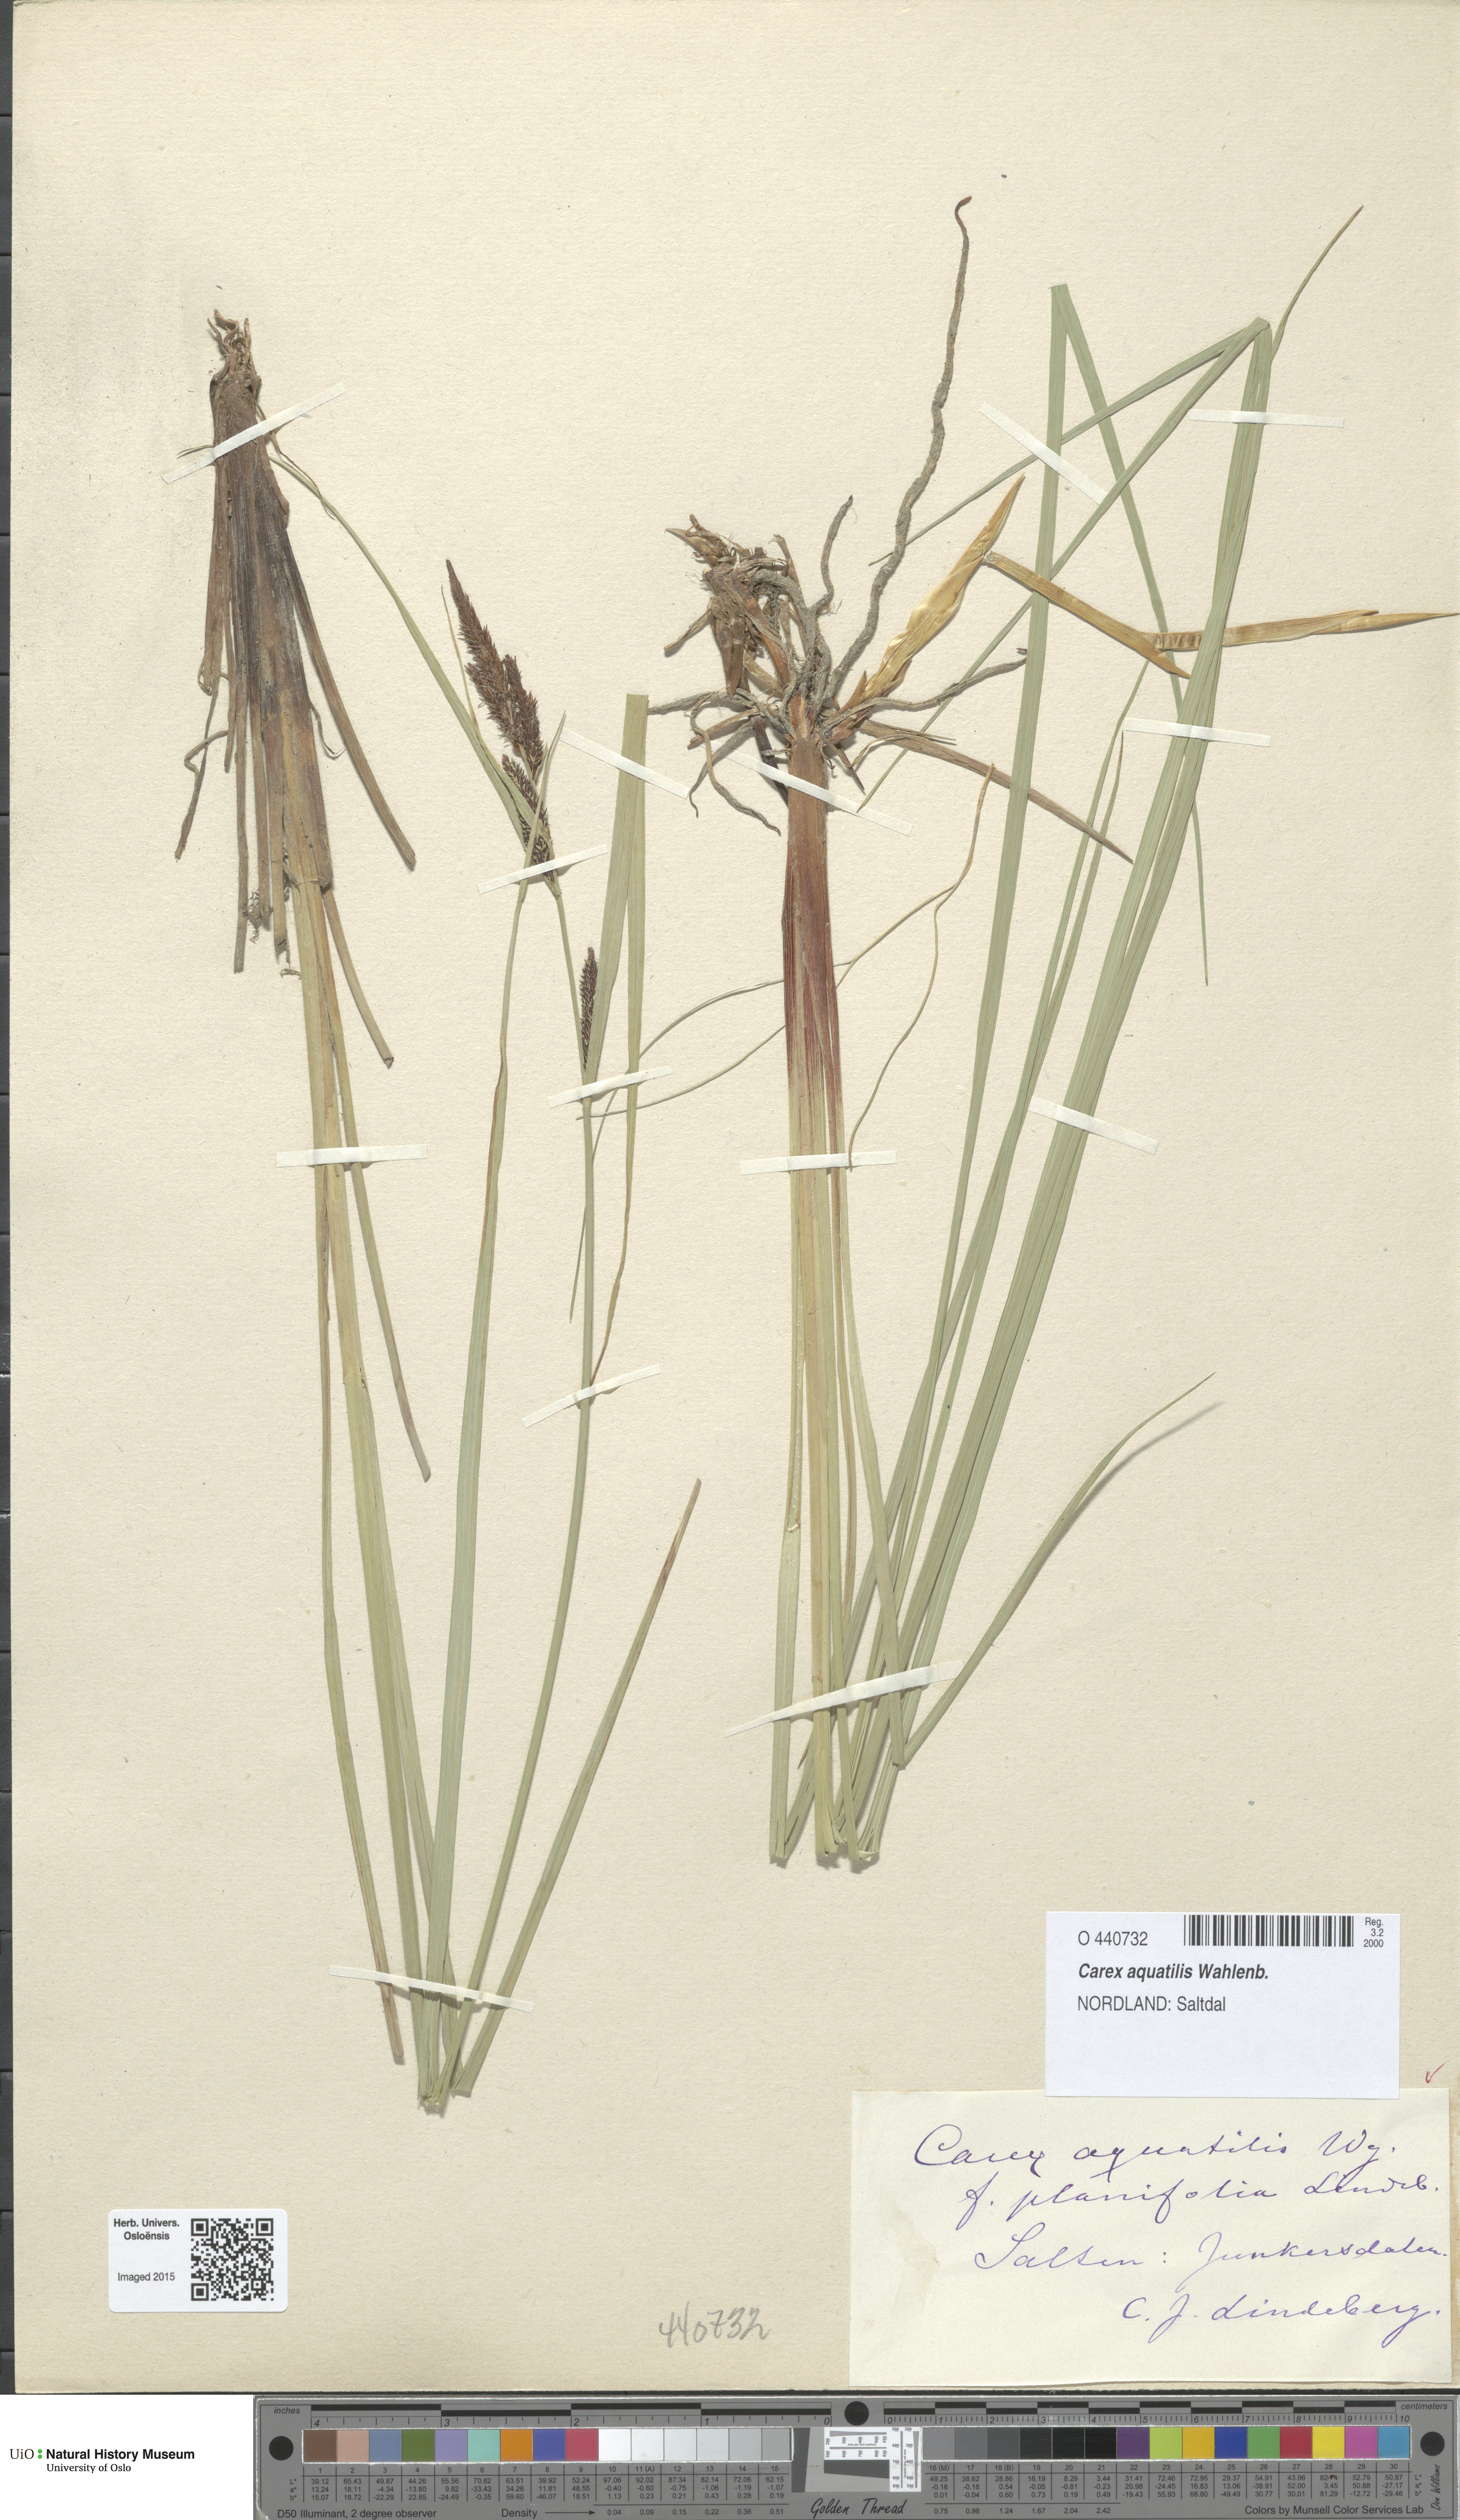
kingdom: Plantae
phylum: Tracheophyta
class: Liliopsida
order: Poales
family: Cyperaceae
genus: Carex
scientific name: Carex aquatilis
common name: Water sedge
